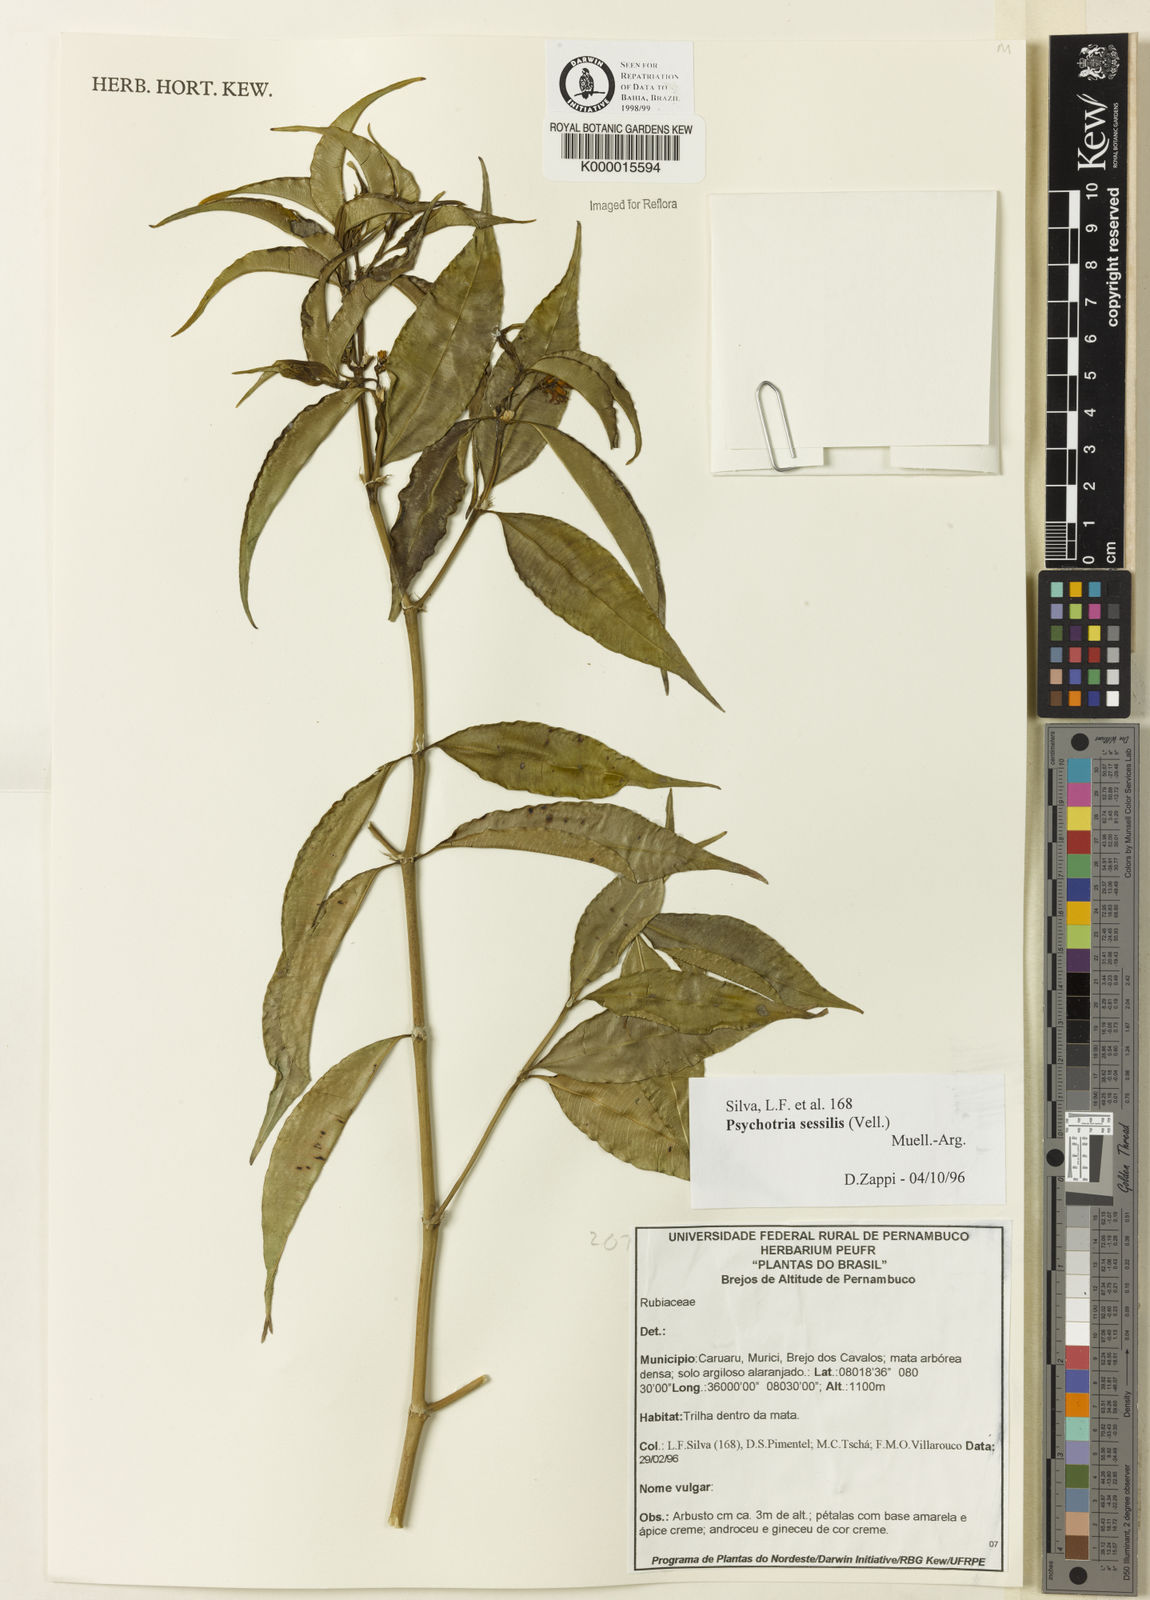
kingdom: Plantae
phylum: Tracheophyta
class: Magnoliopsida
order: Gentianales
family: Rubiaceae
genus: Psychotria
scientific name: Psychotria
